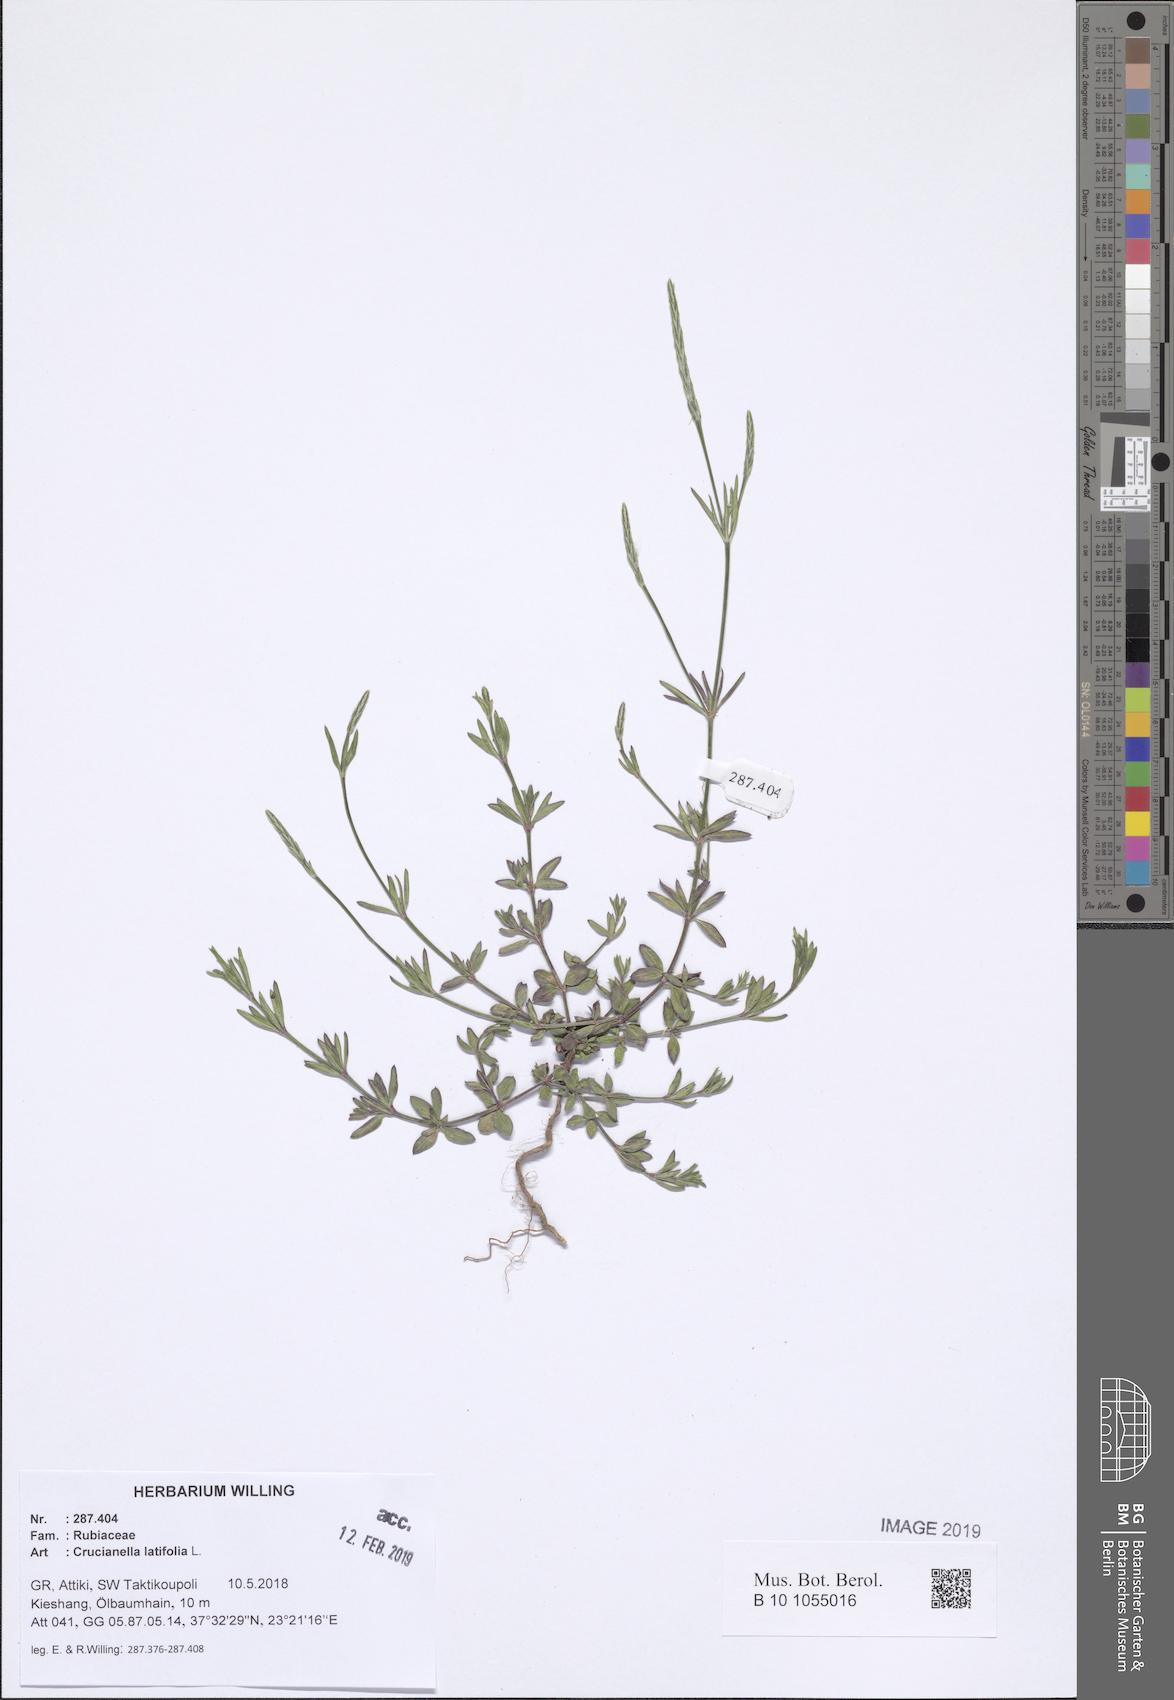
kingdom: Plantae
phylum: Tracheophyta
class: Magnoliopsida
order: Gentianales
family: Rubiaceae
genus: Crucianella
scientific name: Crucianella latifolia
